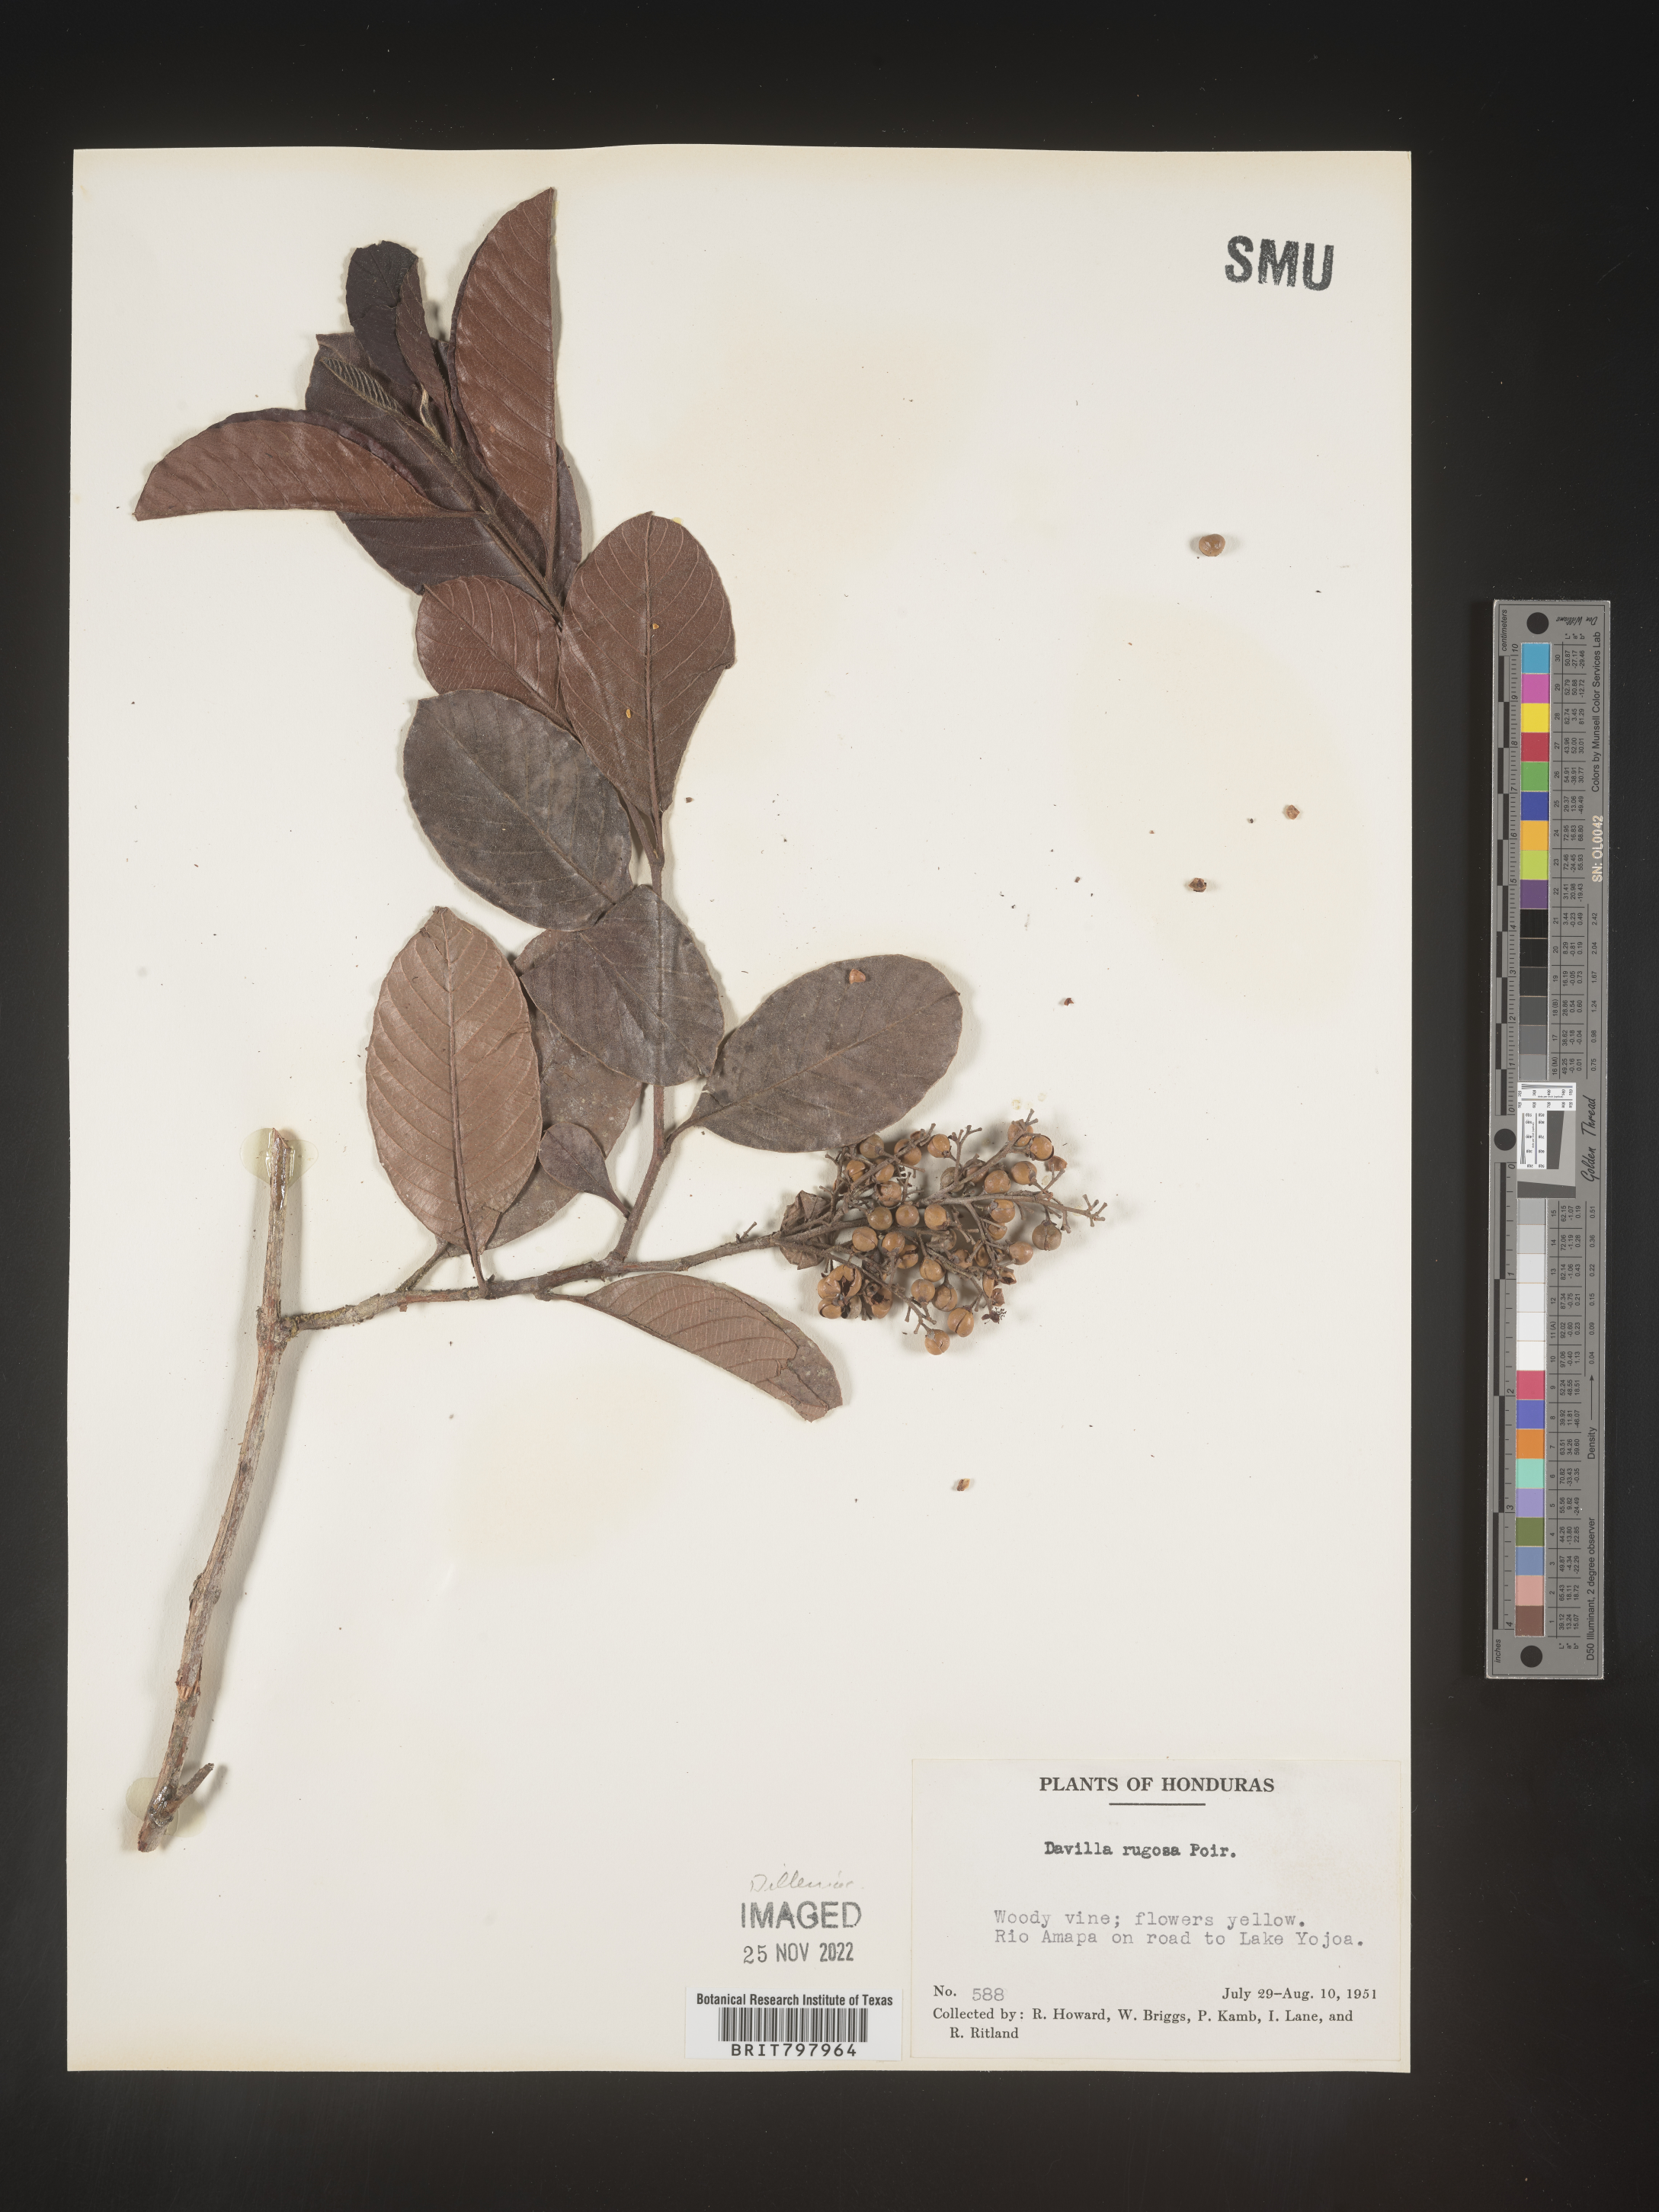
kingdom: Plantae
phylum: Tracheophyta
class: Polypodiopsida
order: Polypodiales
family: Davalliaceae
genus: Davallia
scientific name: Davallia
